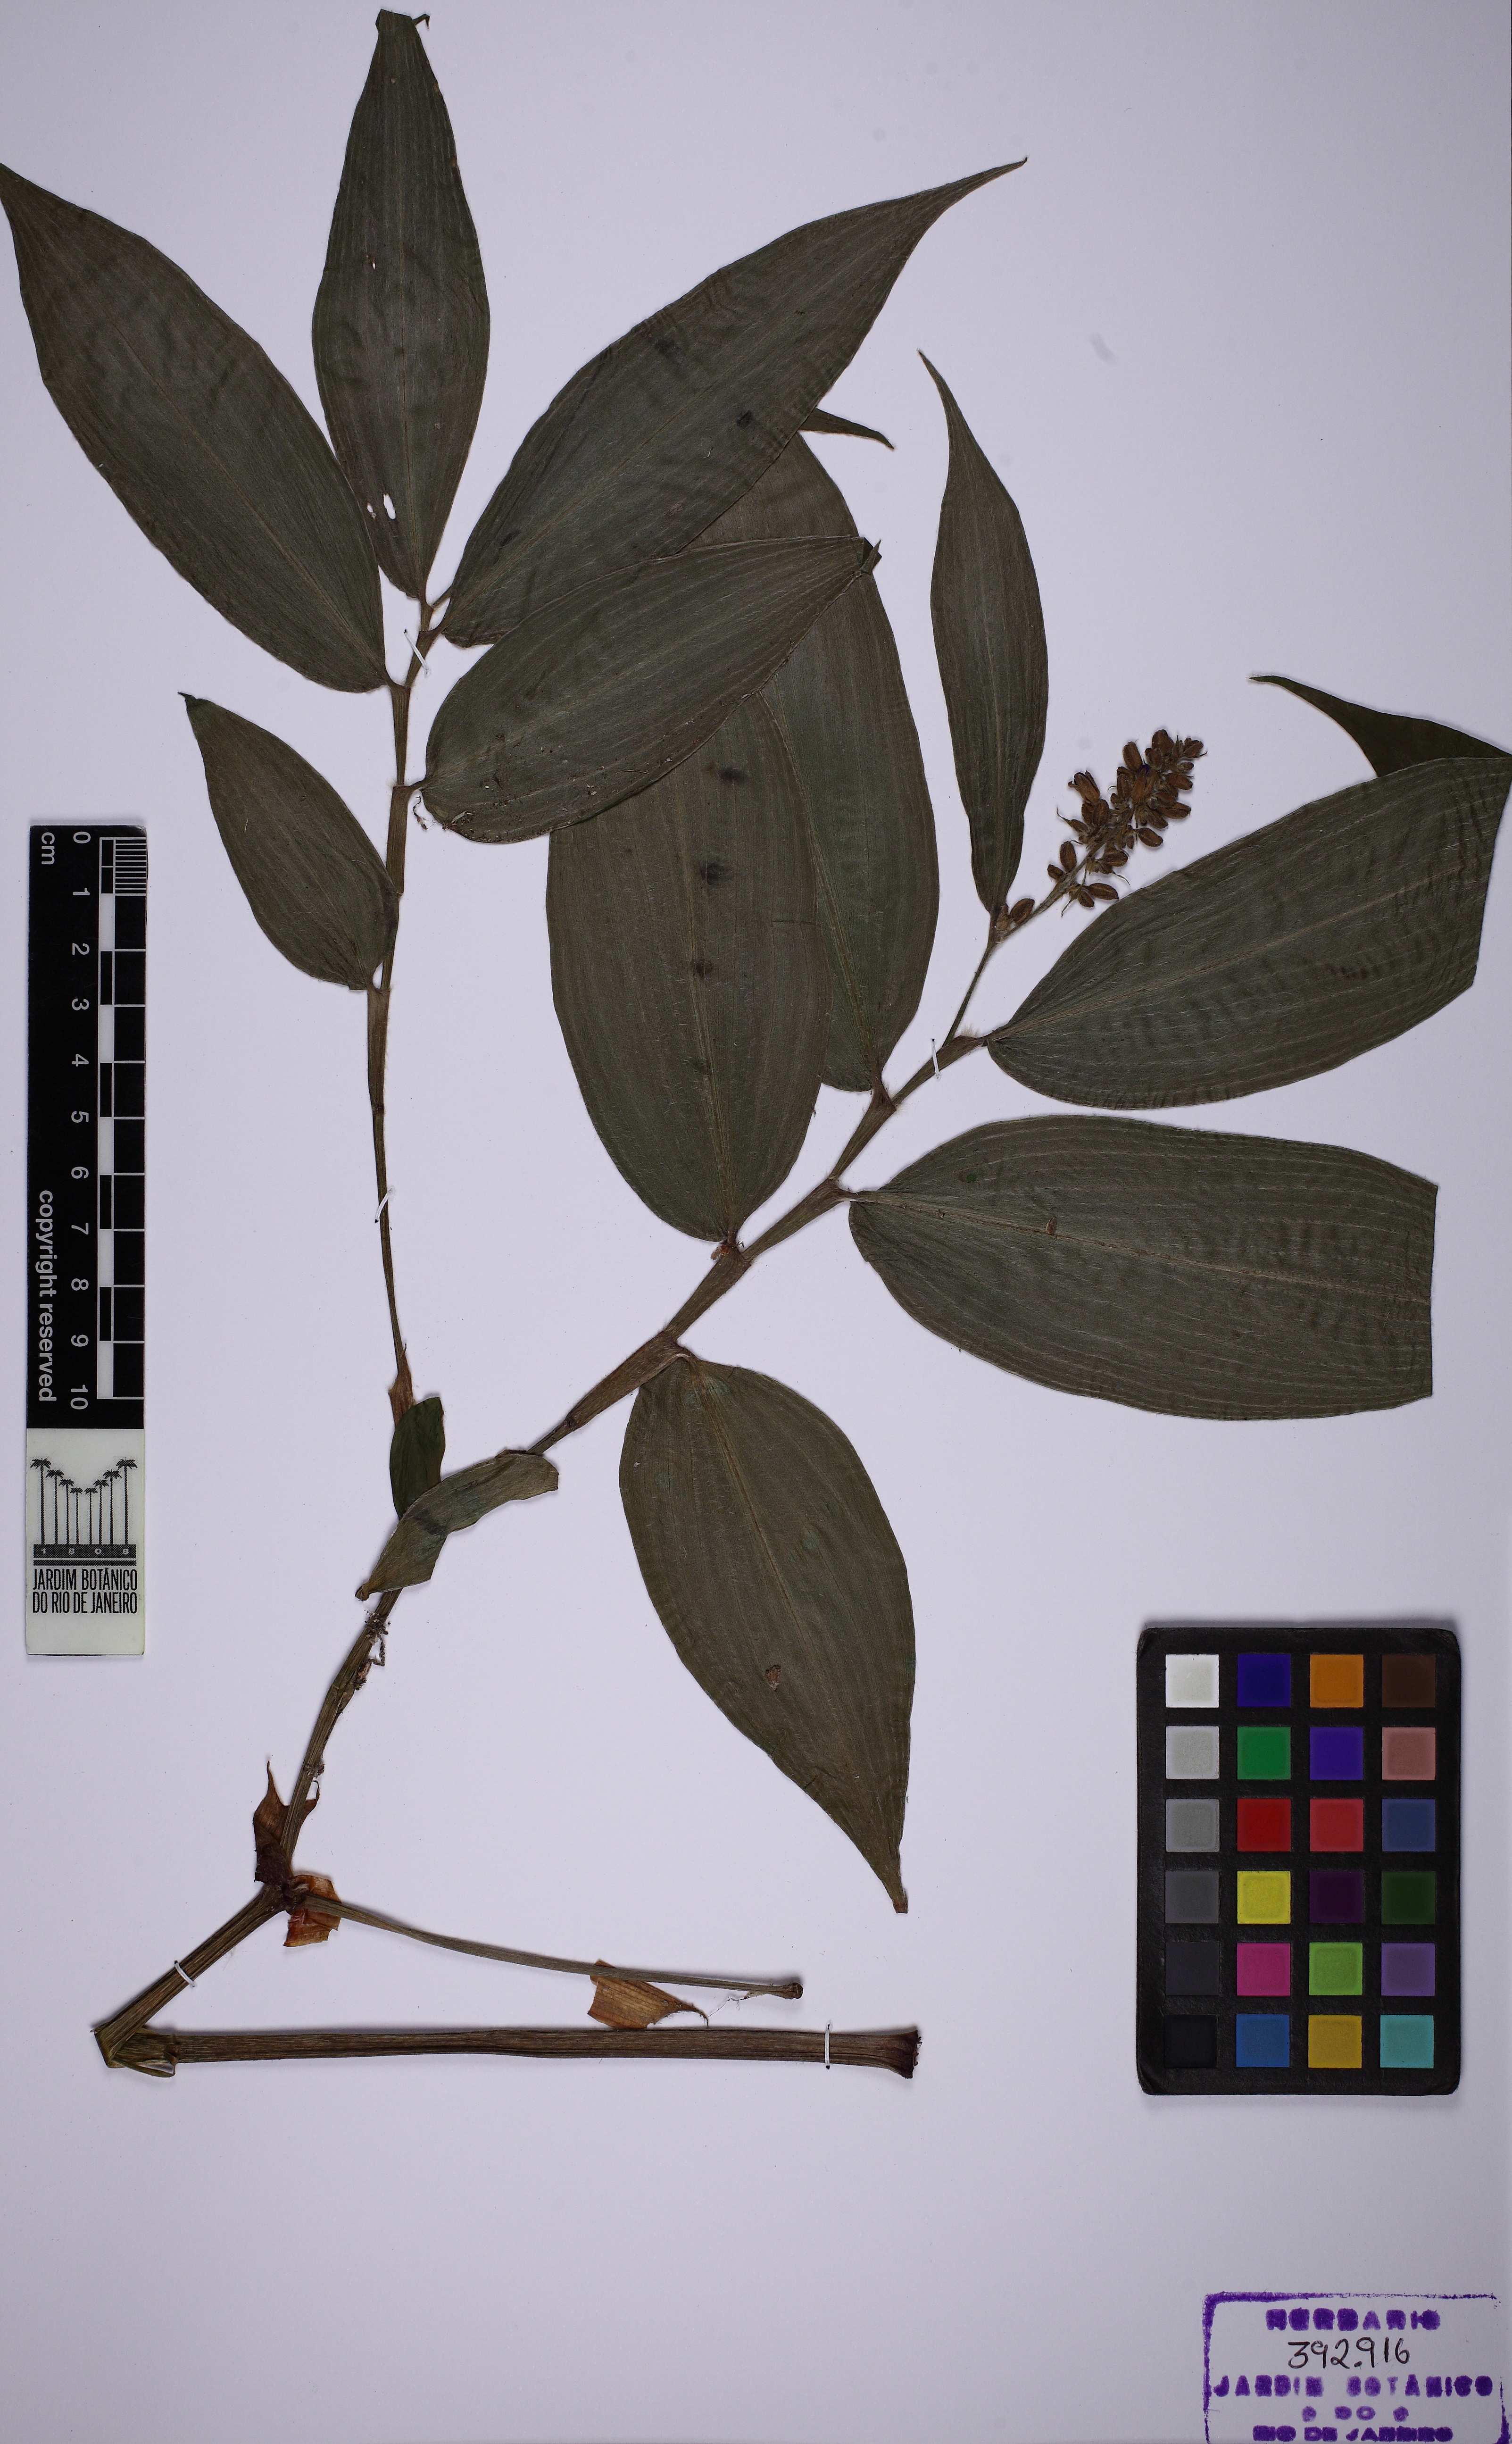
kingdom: Plantae
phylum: Tracheophyta
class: Liliopsida
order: Commelinales
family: Commelinaceae
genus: Dichorisandra
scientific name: Dichorisandra tejucensis
